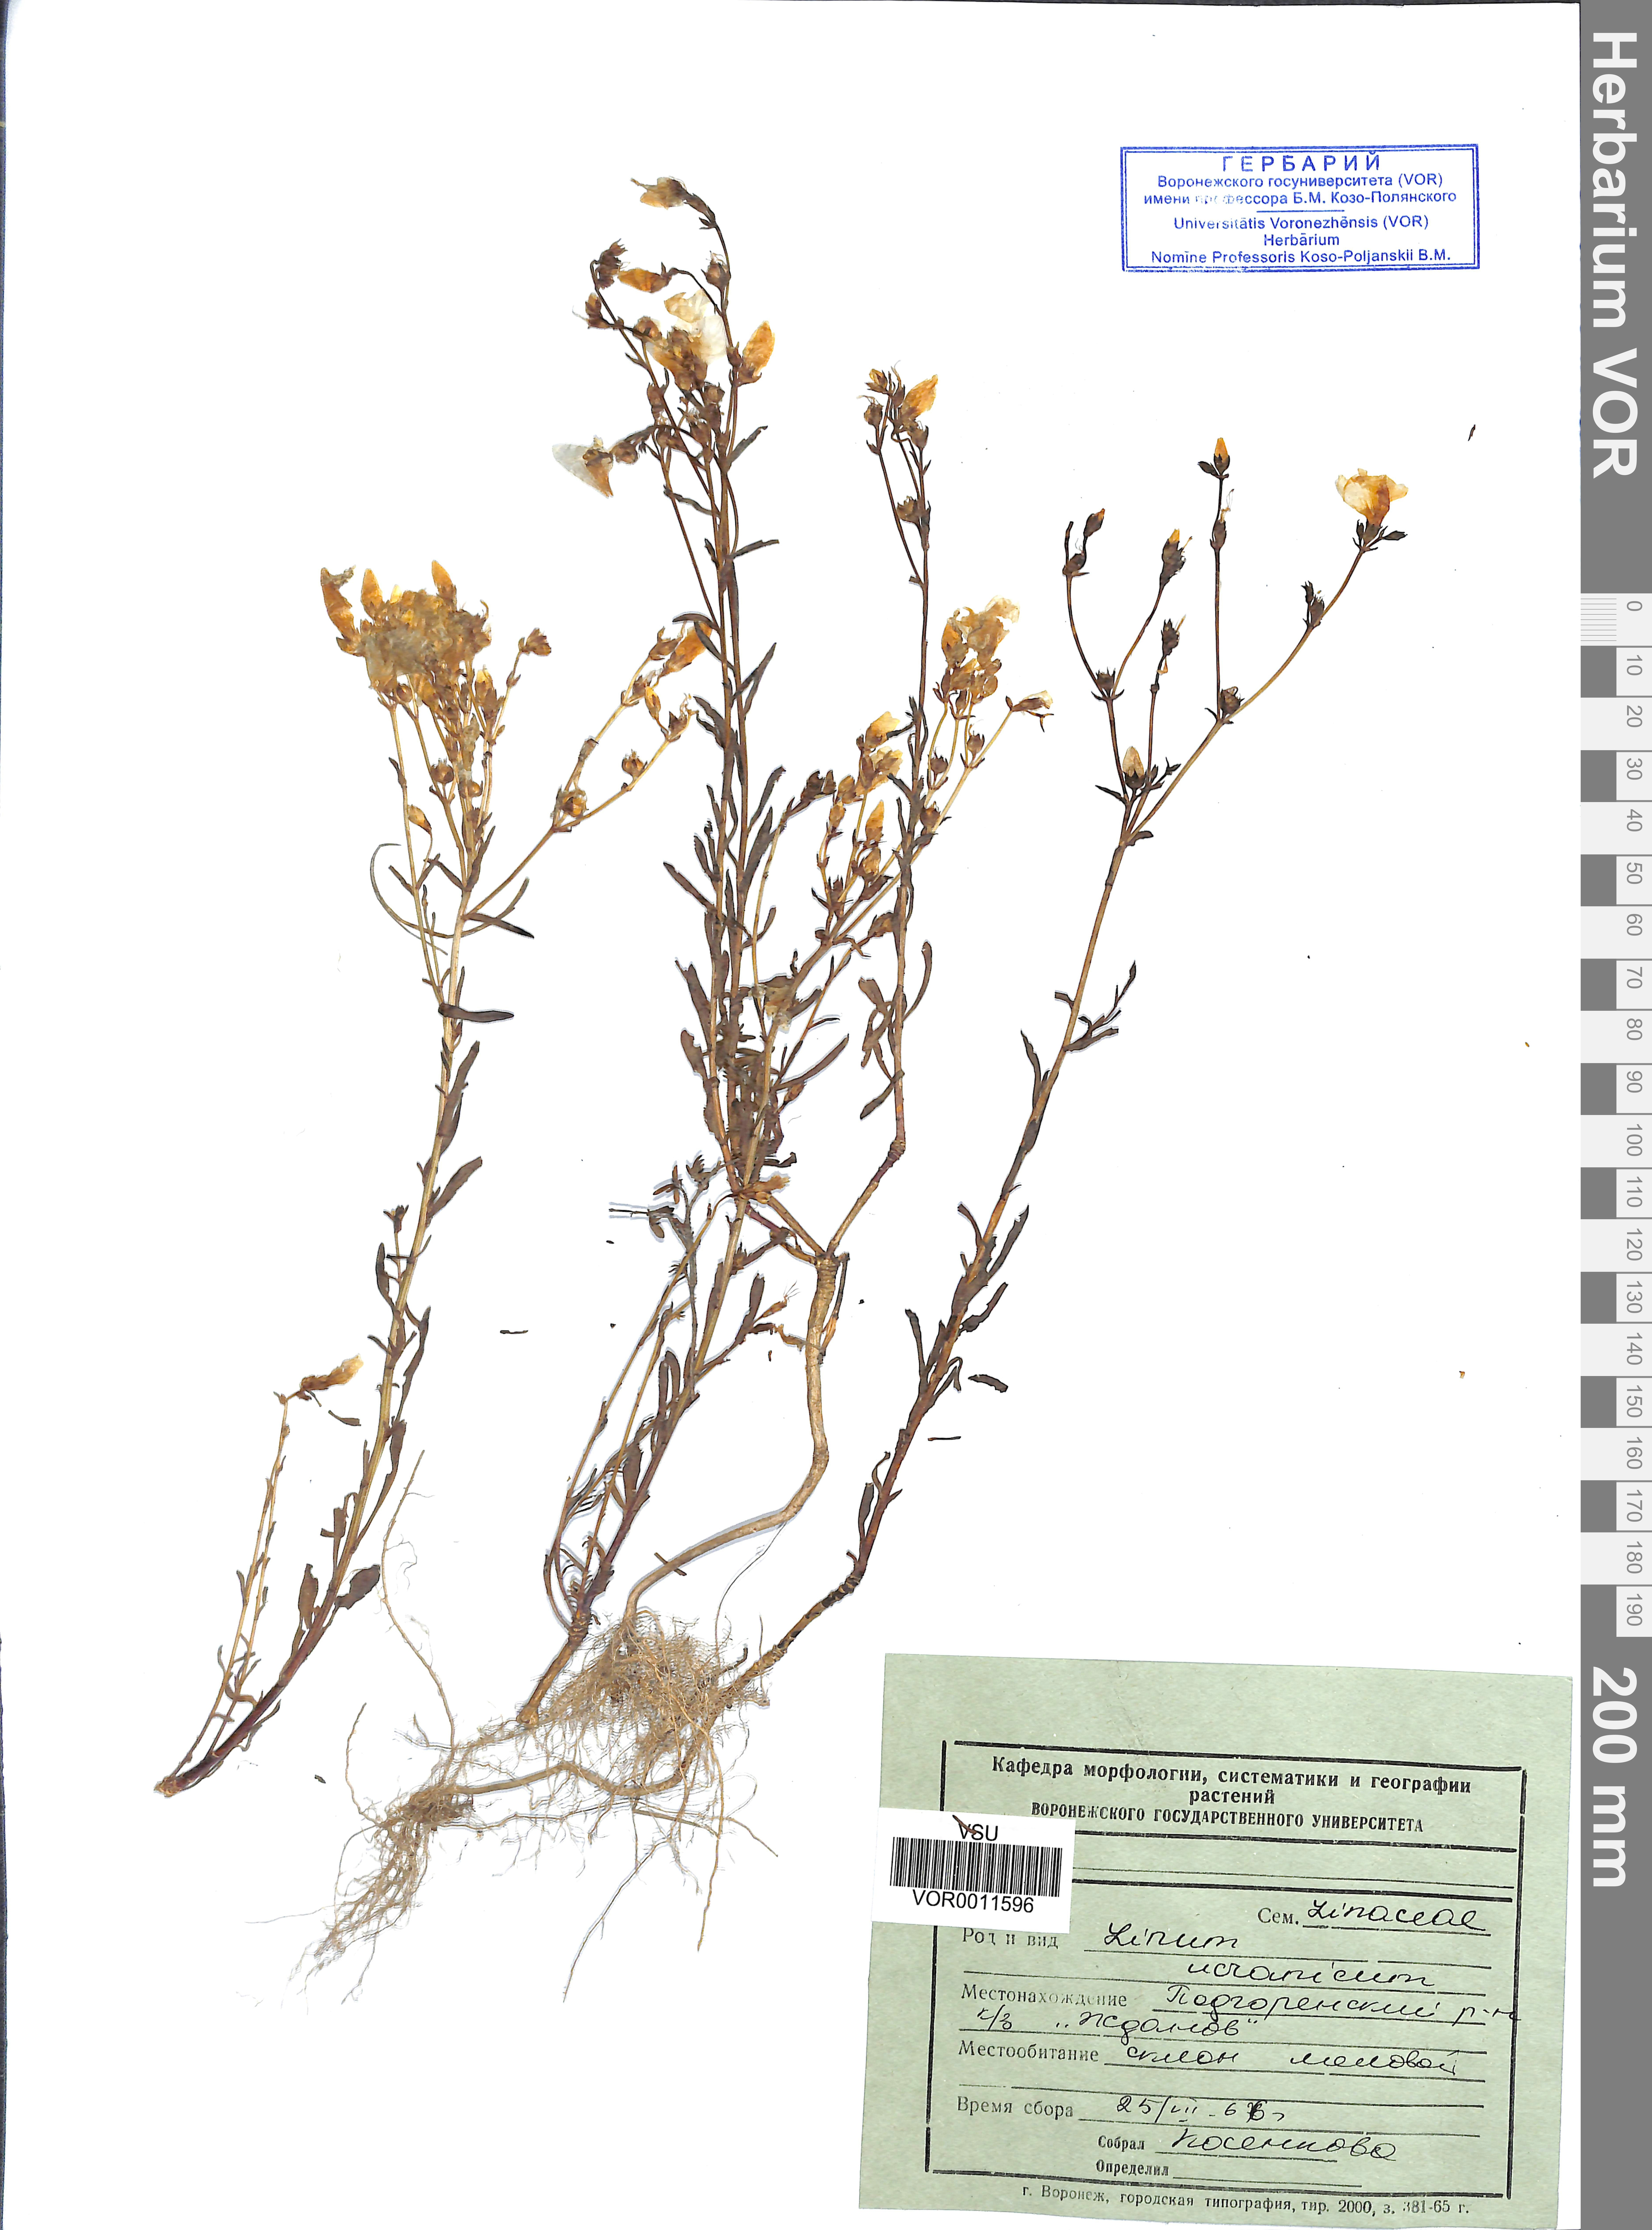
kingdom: Plantae
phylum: Tracheophyta
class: Magnoliopsida
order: Malpighiales
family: Linaceae
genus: Linum
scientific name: Linum ucranicum
